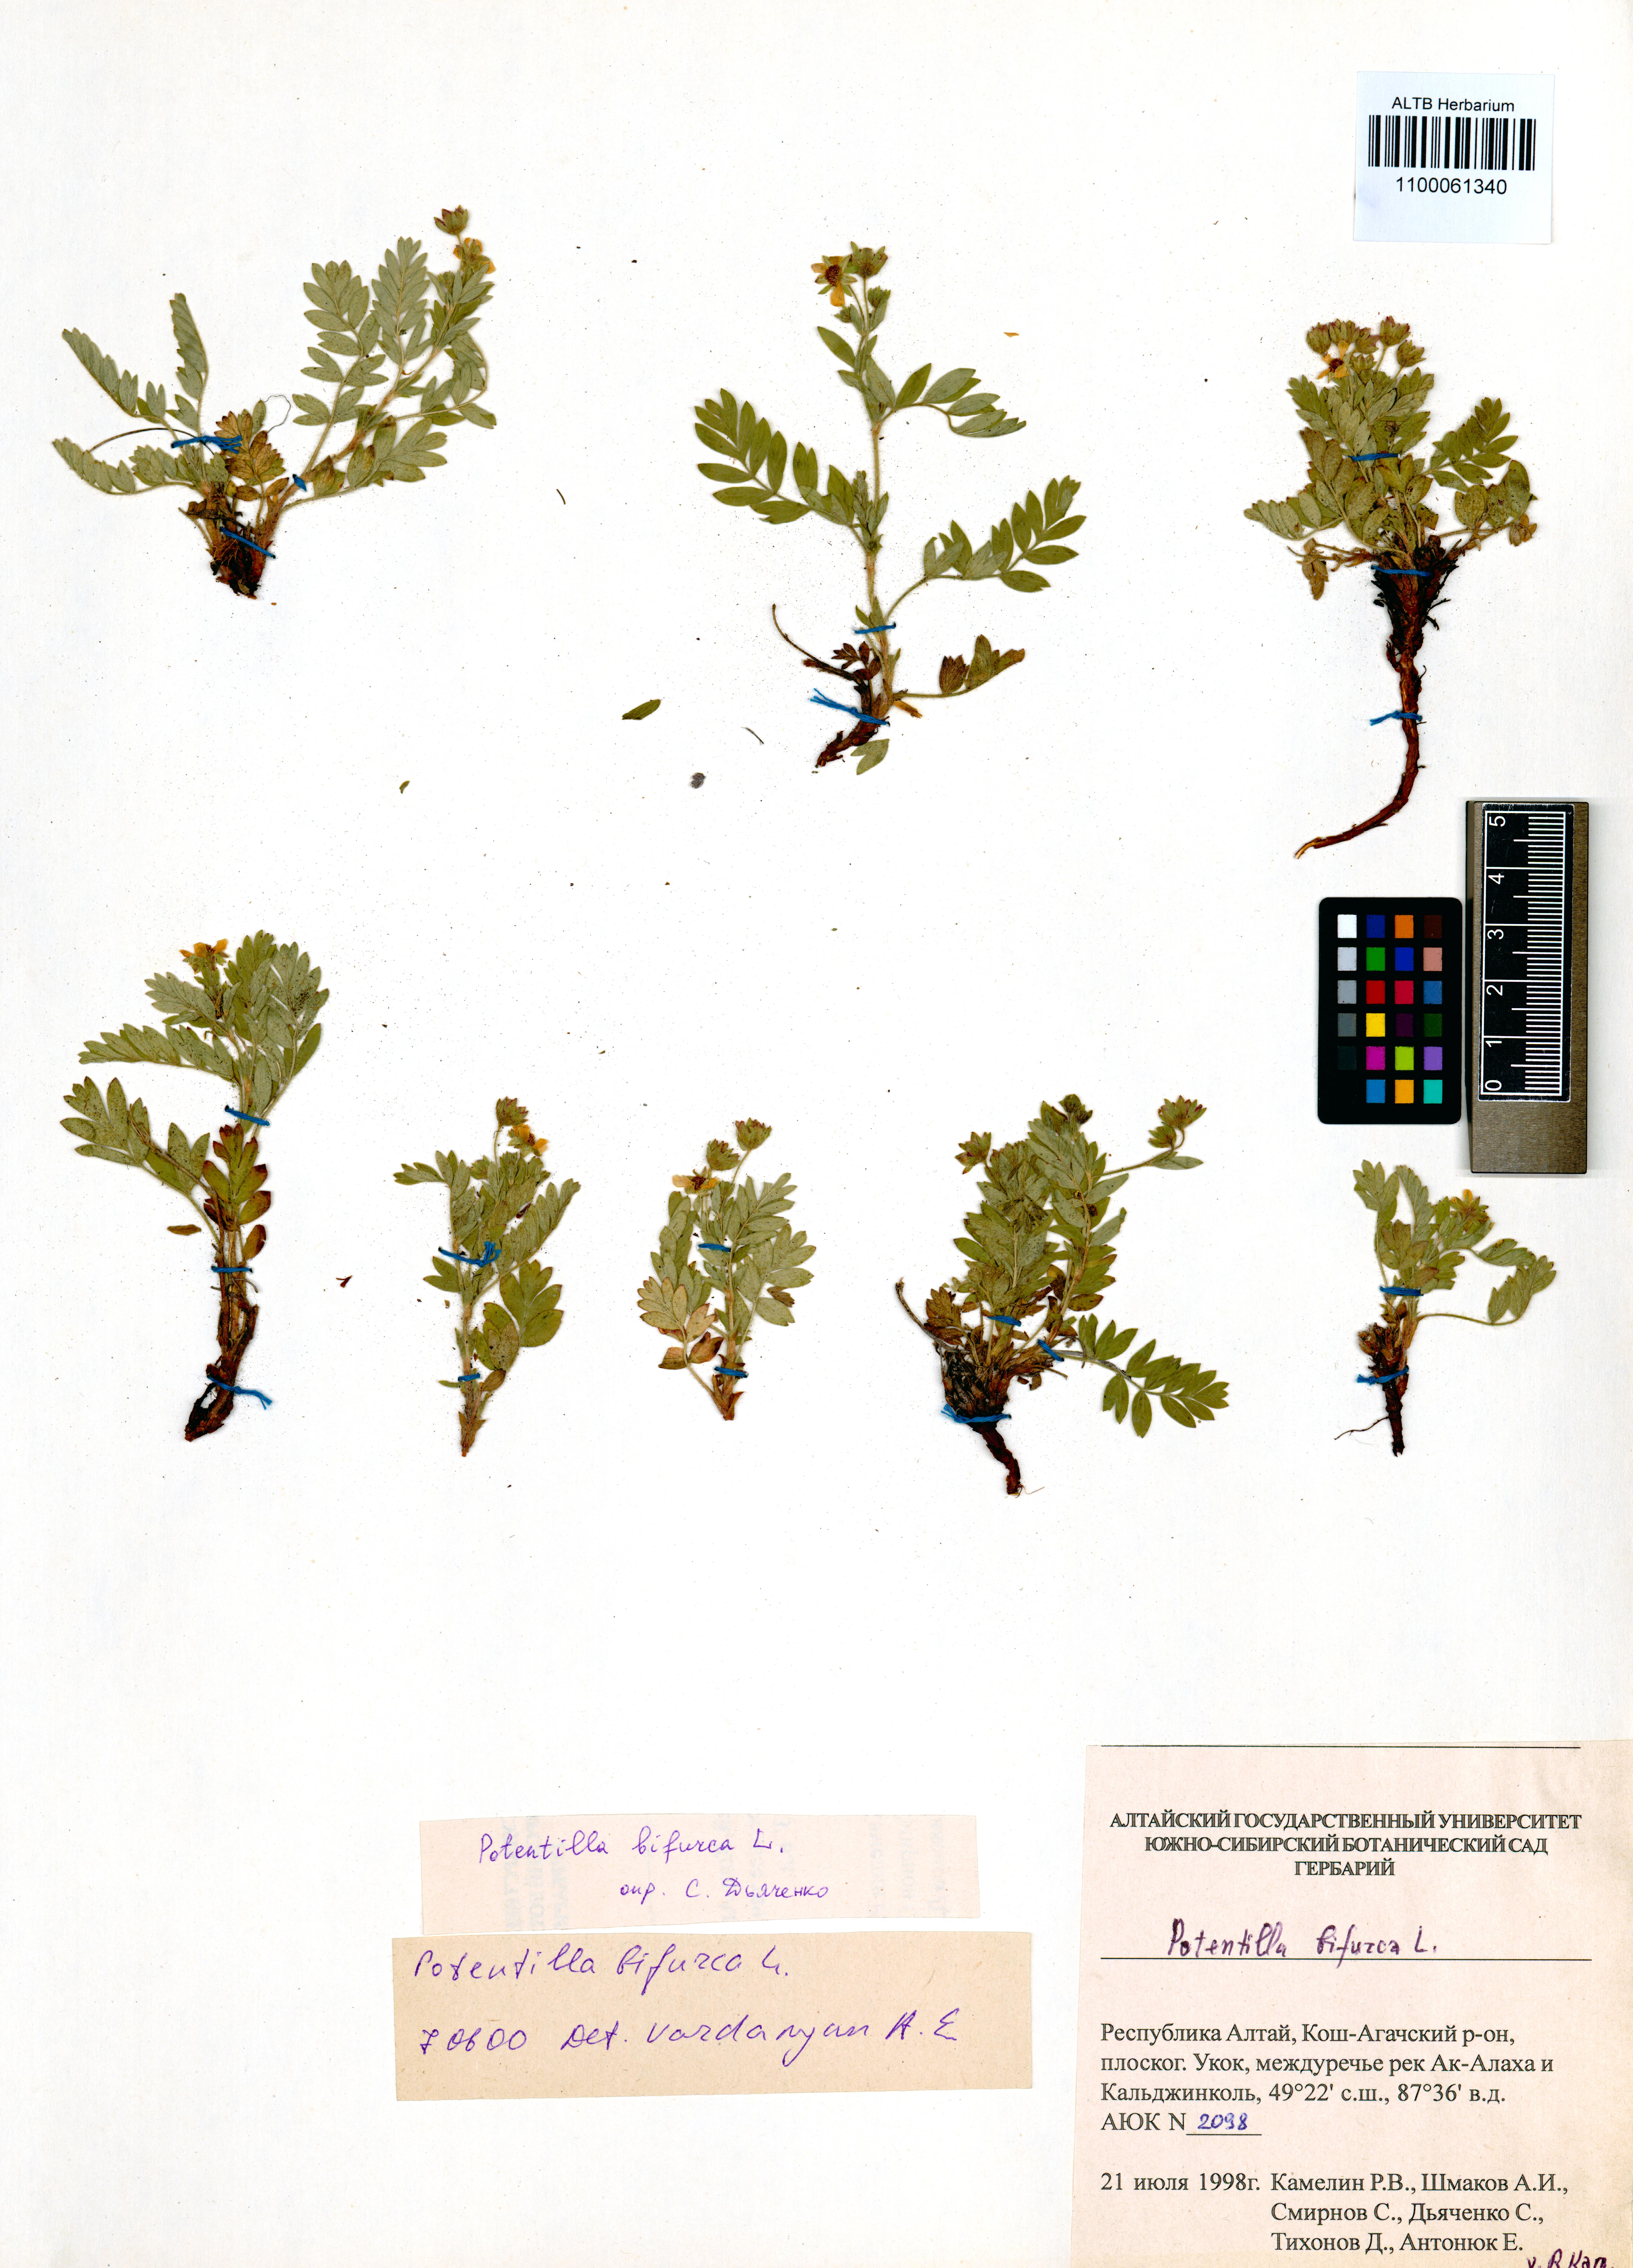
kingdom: Plantae
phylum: Tracheophyta
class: Magnoliopsida
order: Rosales
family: Rosaceae
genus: Sibbaldianthe
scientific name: Sibbaldianthe bifurca
